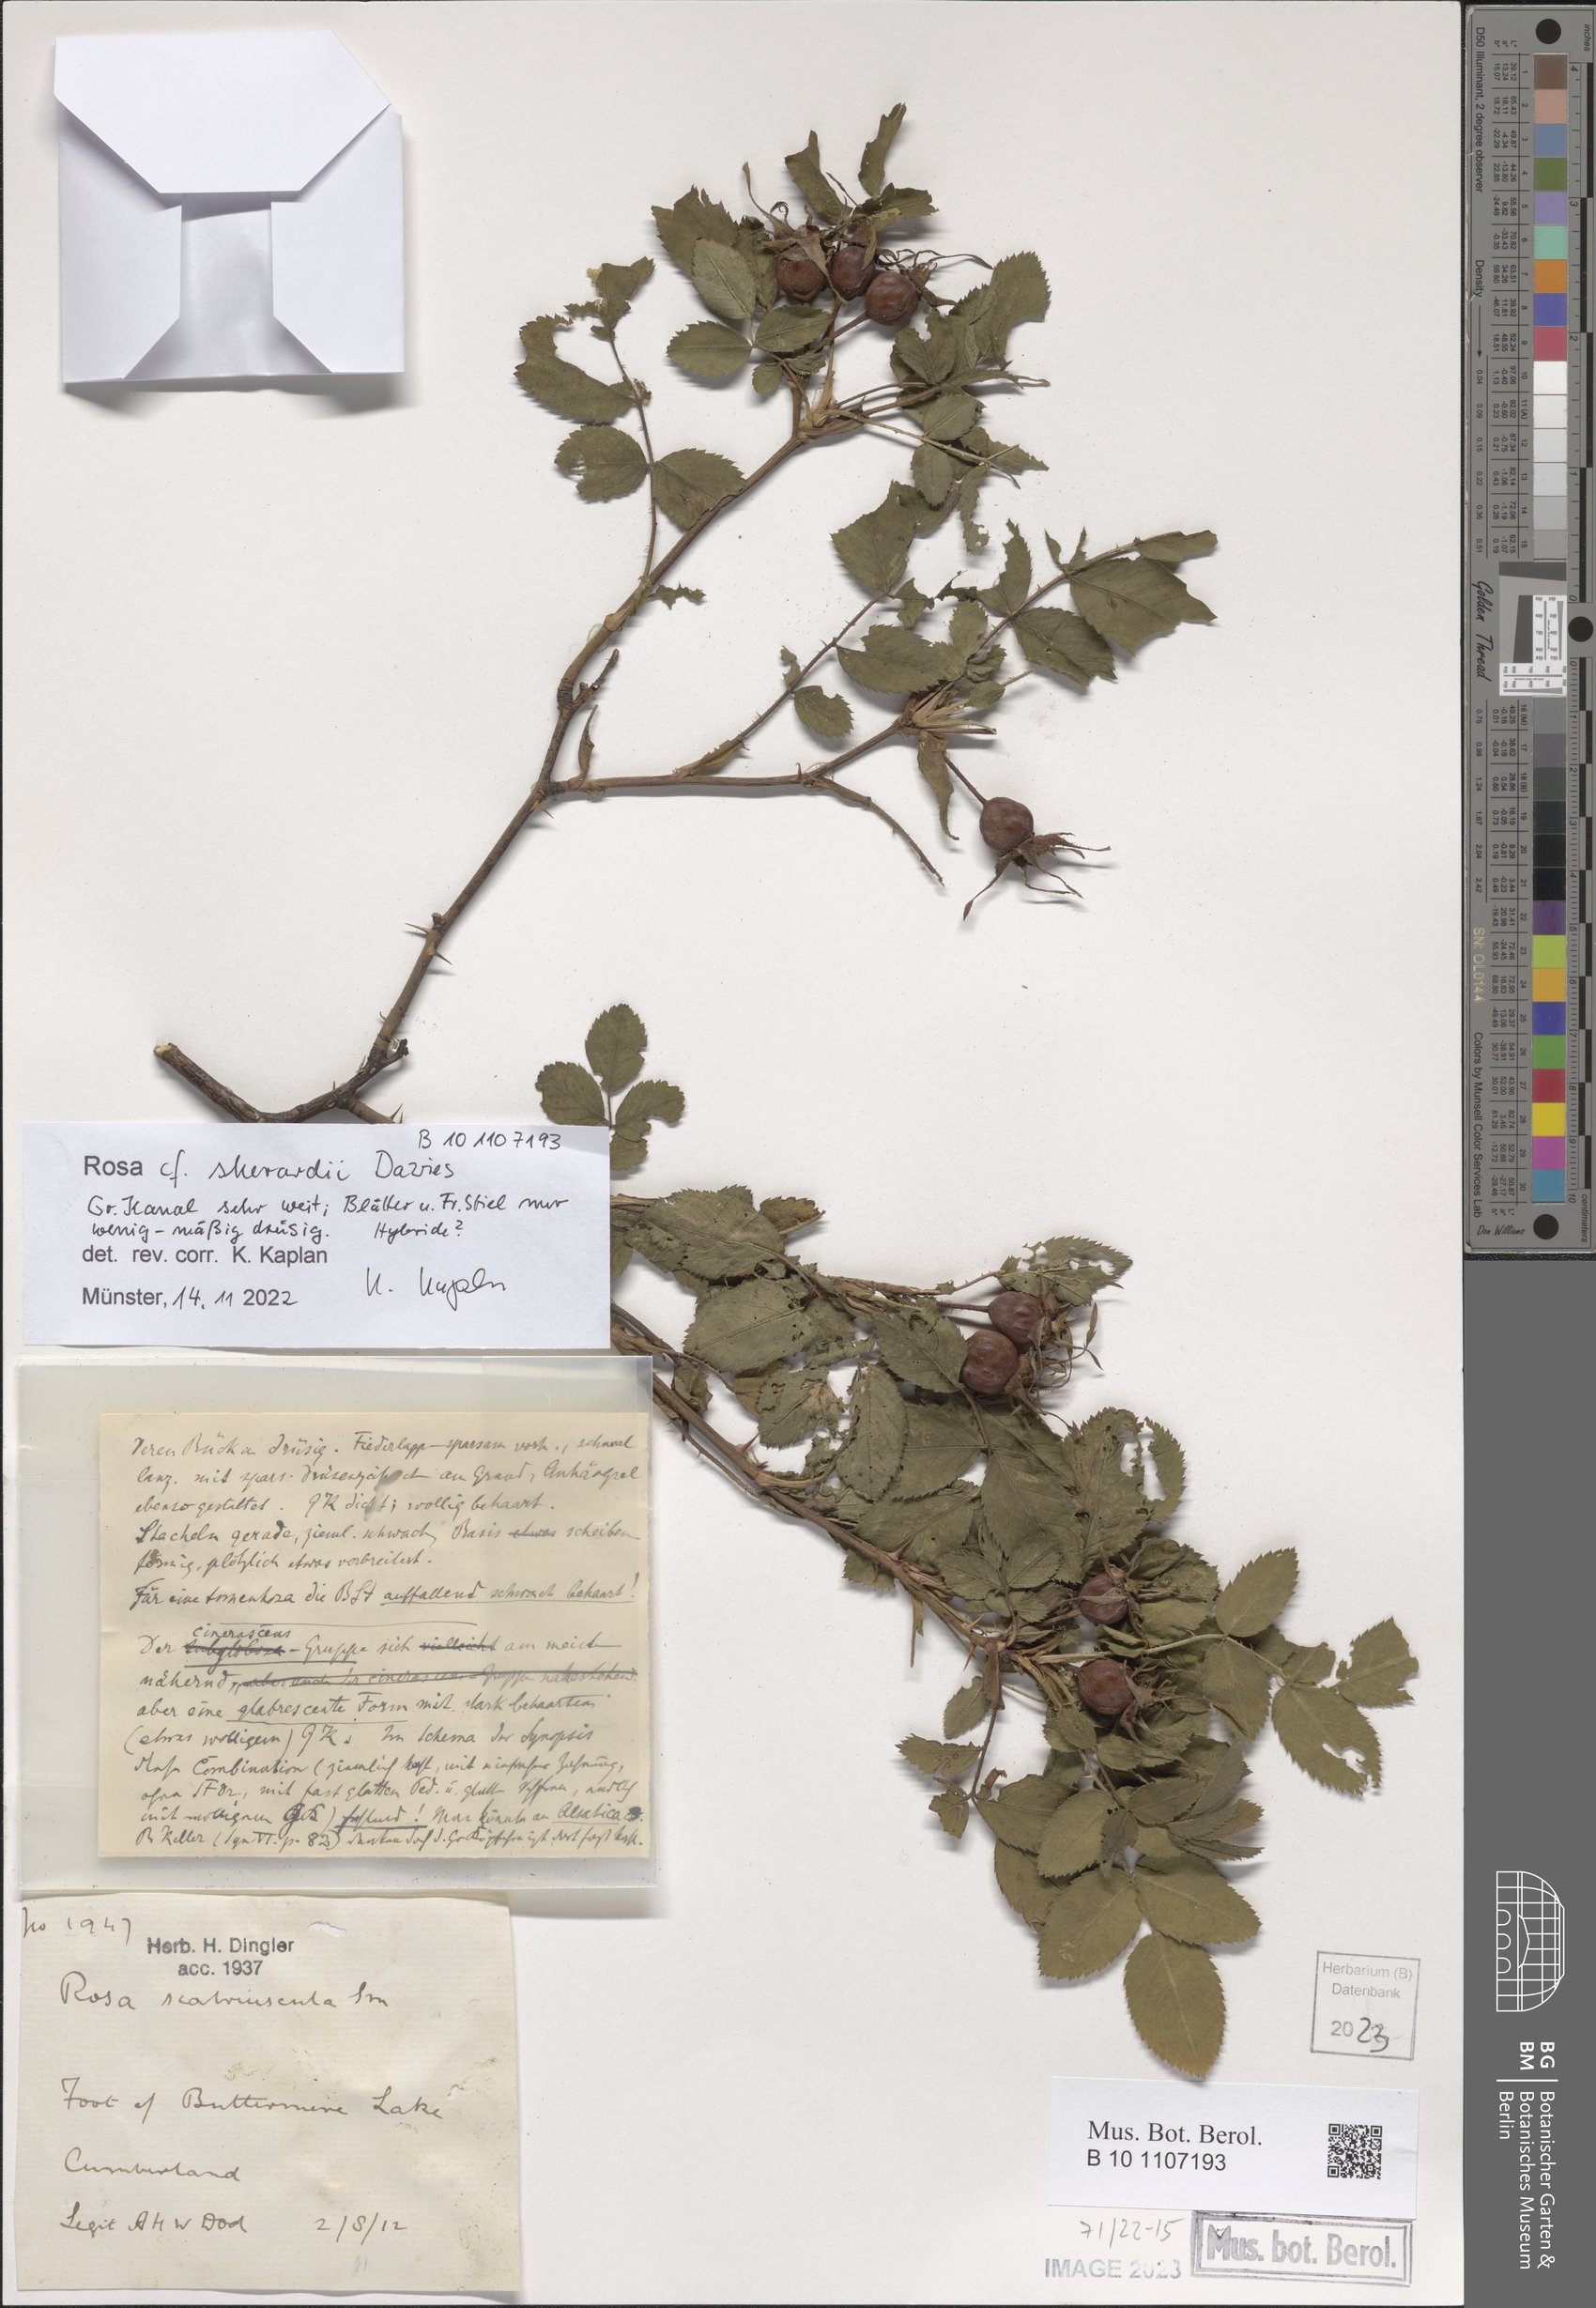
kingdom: Plantae
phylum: Tracheophyta
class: Magnoliopsida
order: Rosales
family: Rosaceae
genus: Rosa
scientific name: Rosa sherardii
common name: Sherard's downy rose
